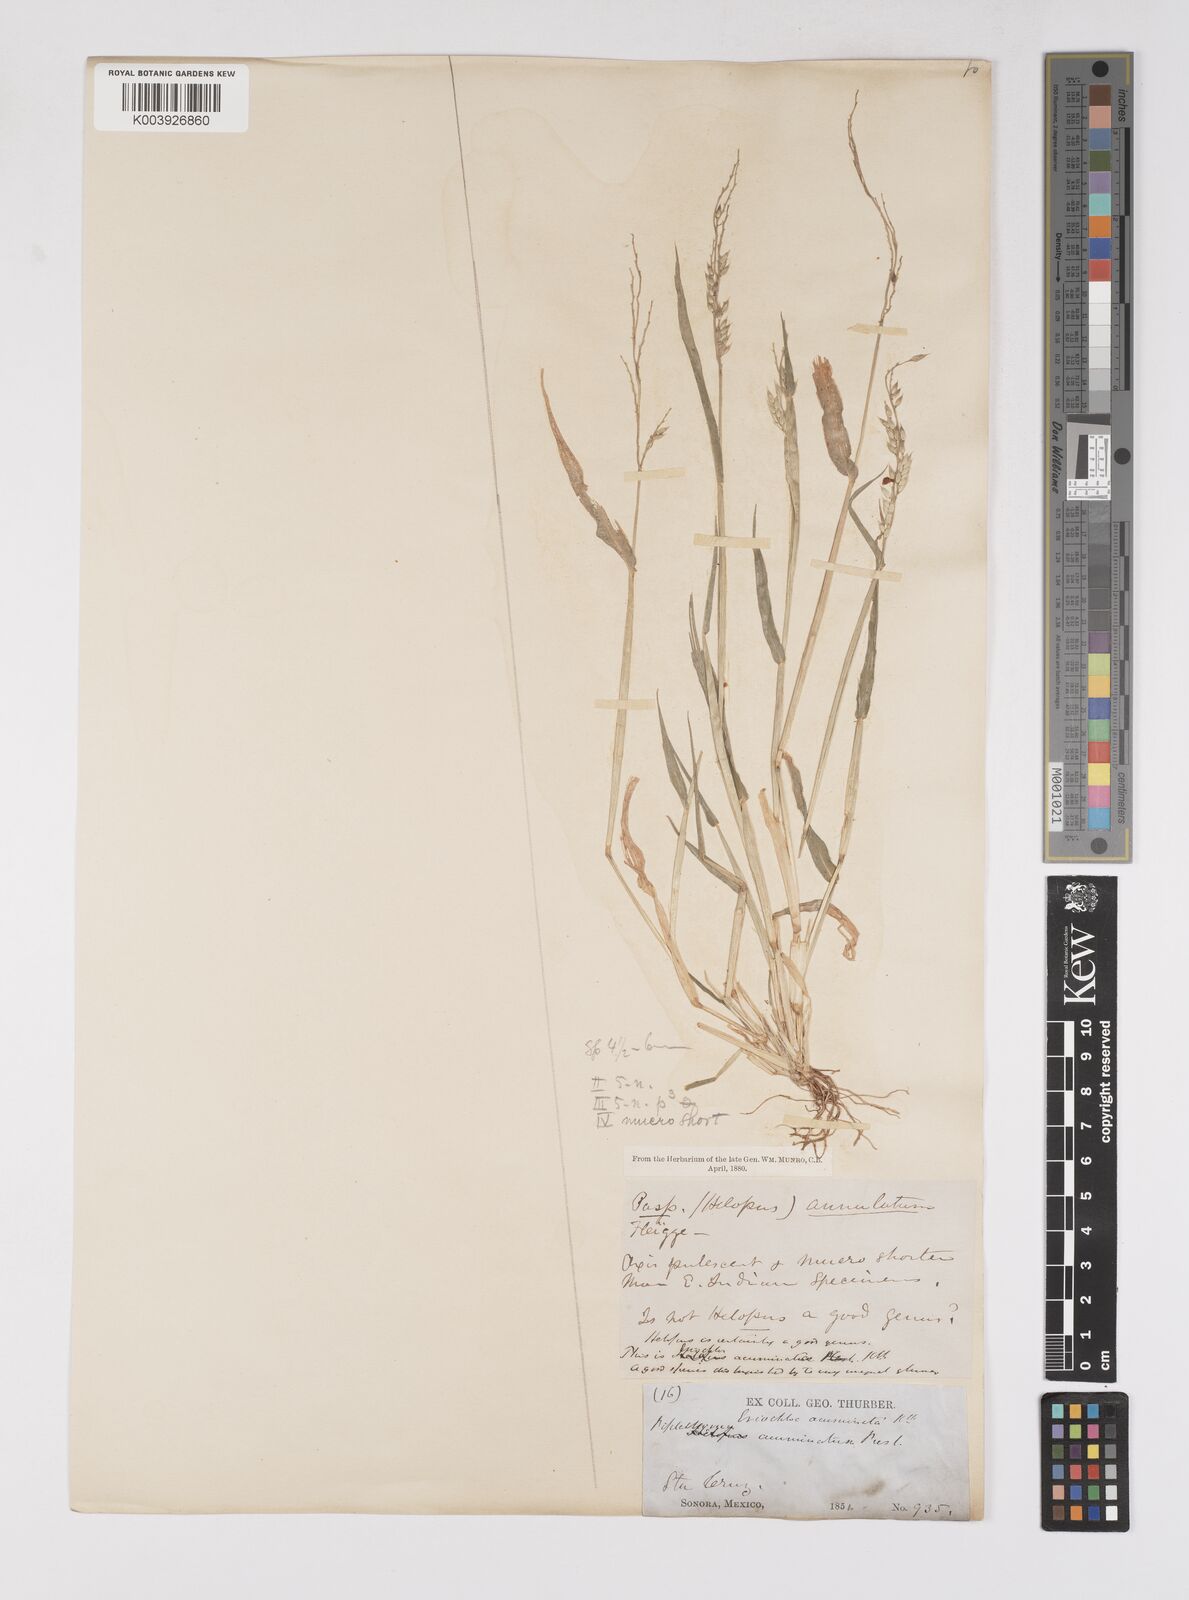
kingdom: Plantae
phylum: Tracheophyta
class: Liliopsida
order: Poales
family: Poaceae
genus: Eriochloa
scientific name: Eriochloa aristata
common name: Bearded cup grass
